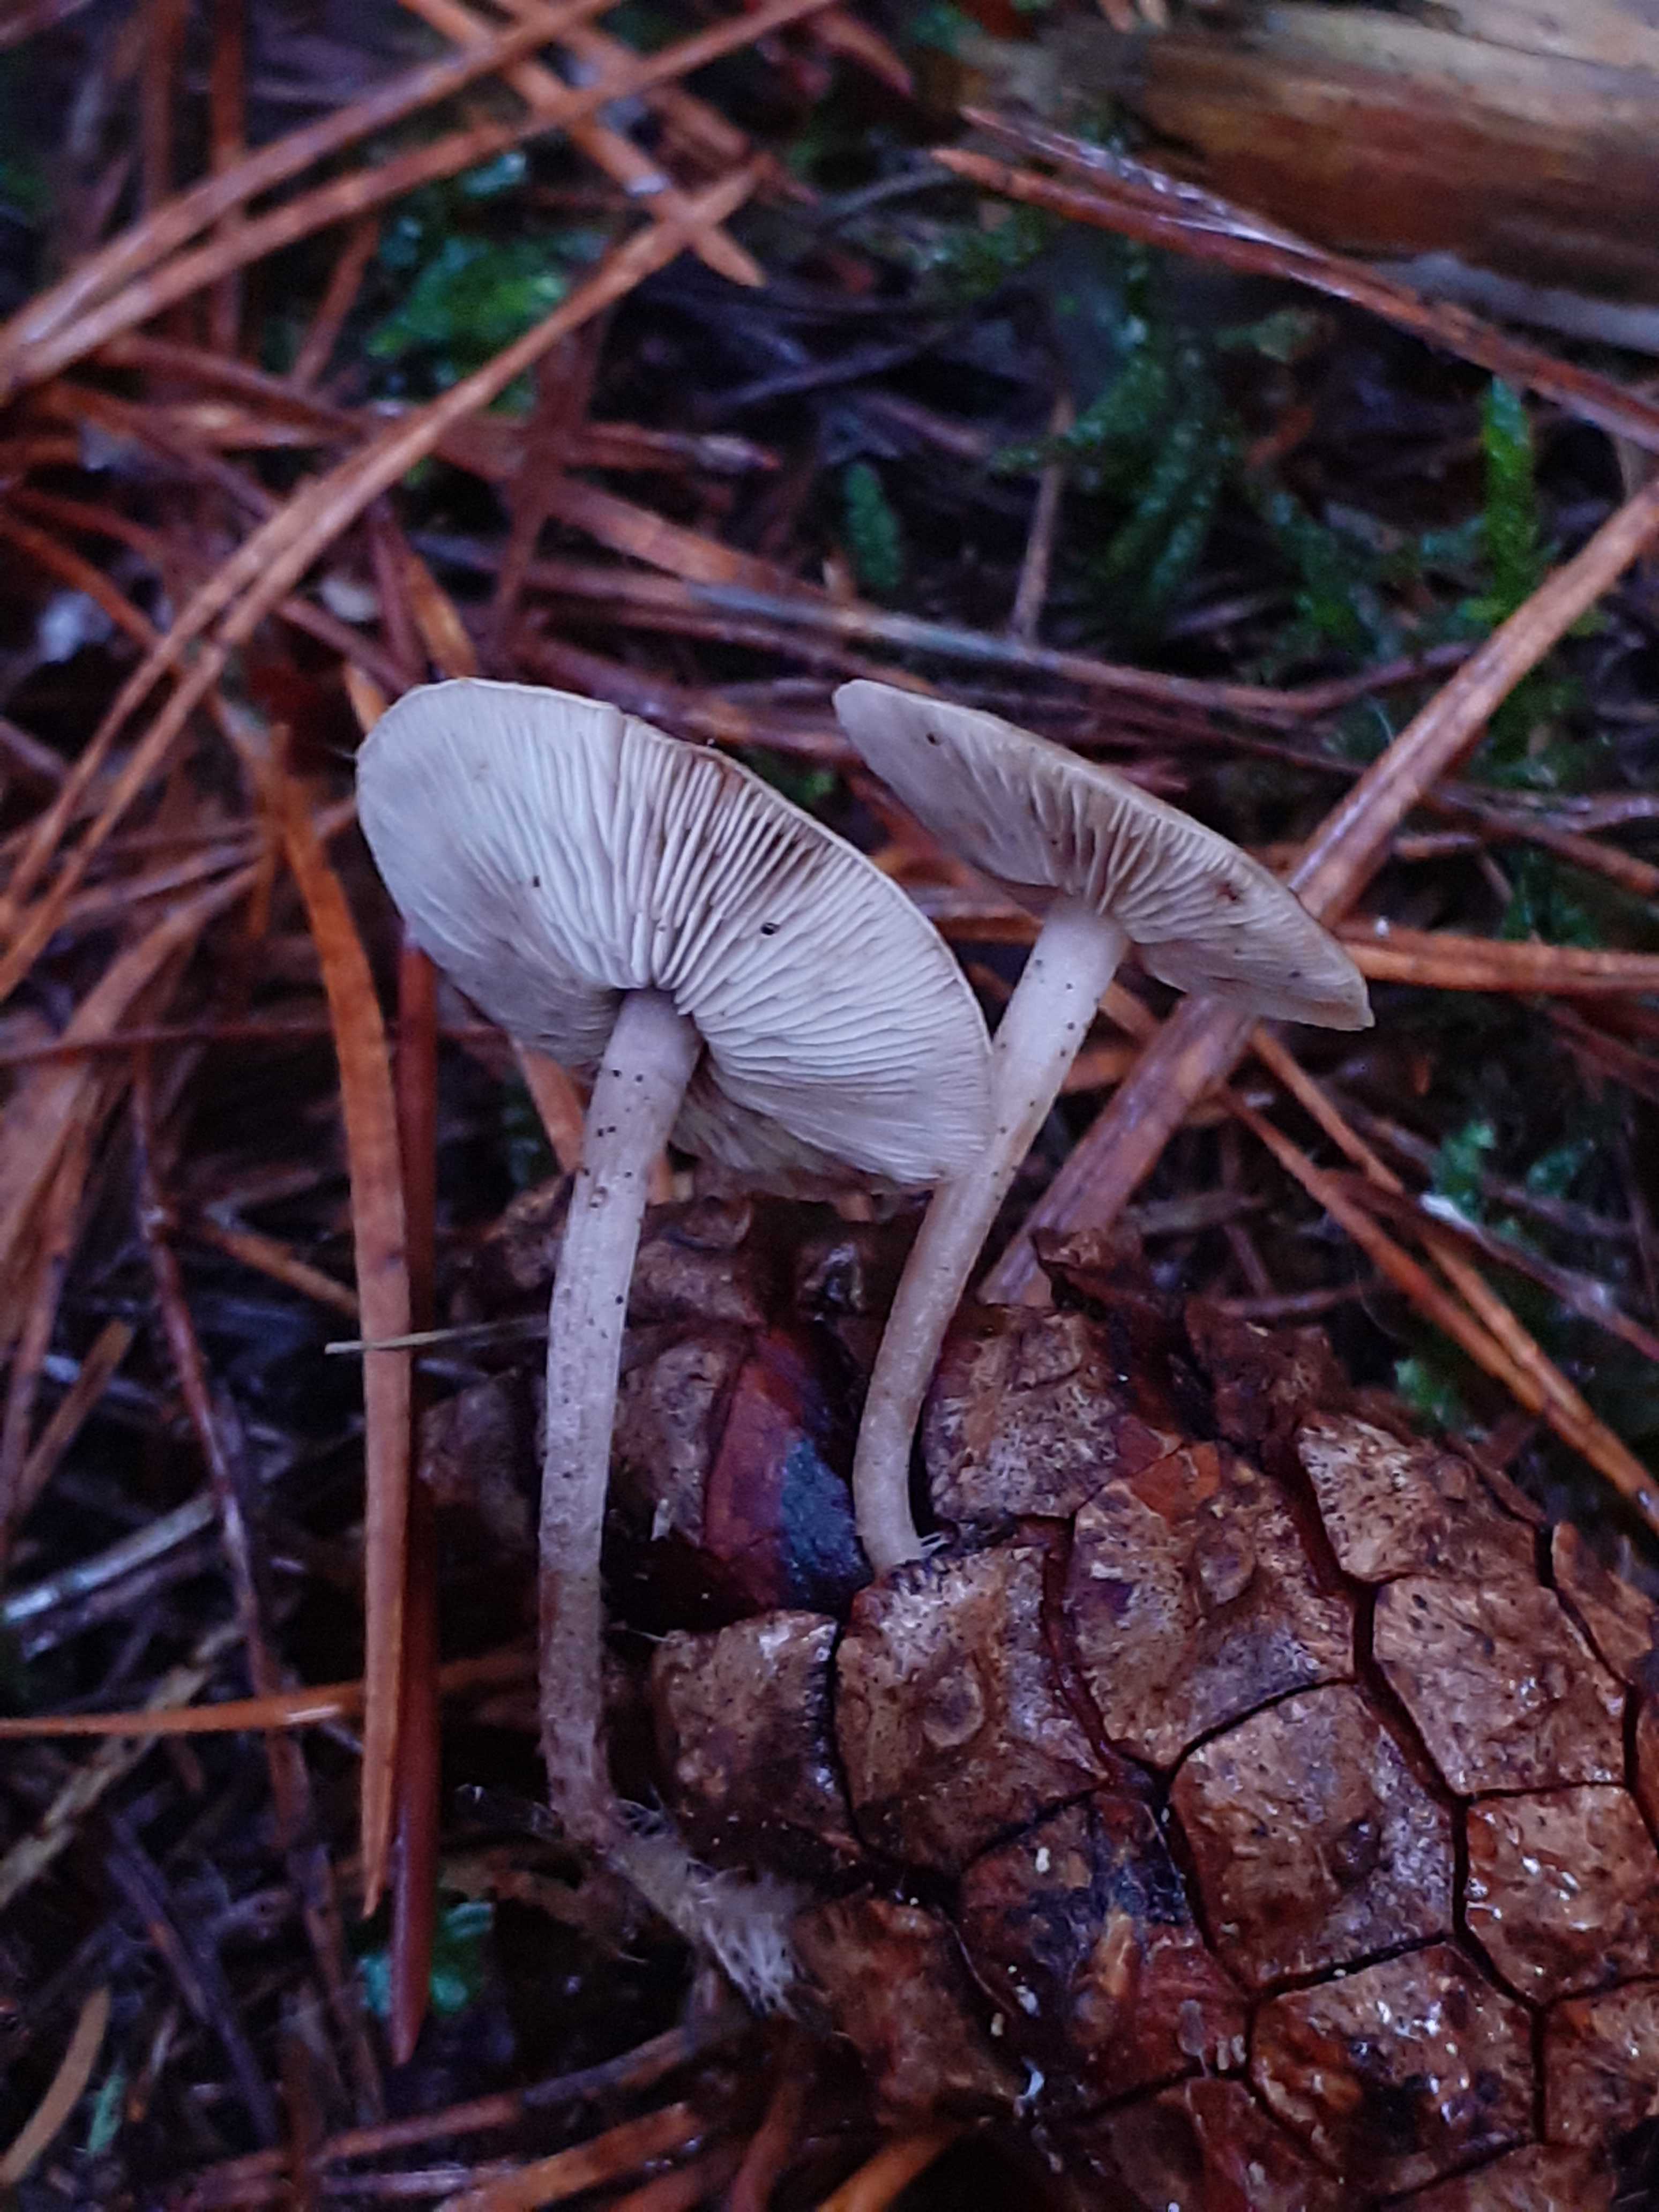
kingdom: Fungi
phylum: Basidiomycota
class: Agaricomycetes
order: Agaricales
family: Marasmiaceae
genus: Baeospora
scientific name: Baeospora myosura
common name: koglebruskhat
